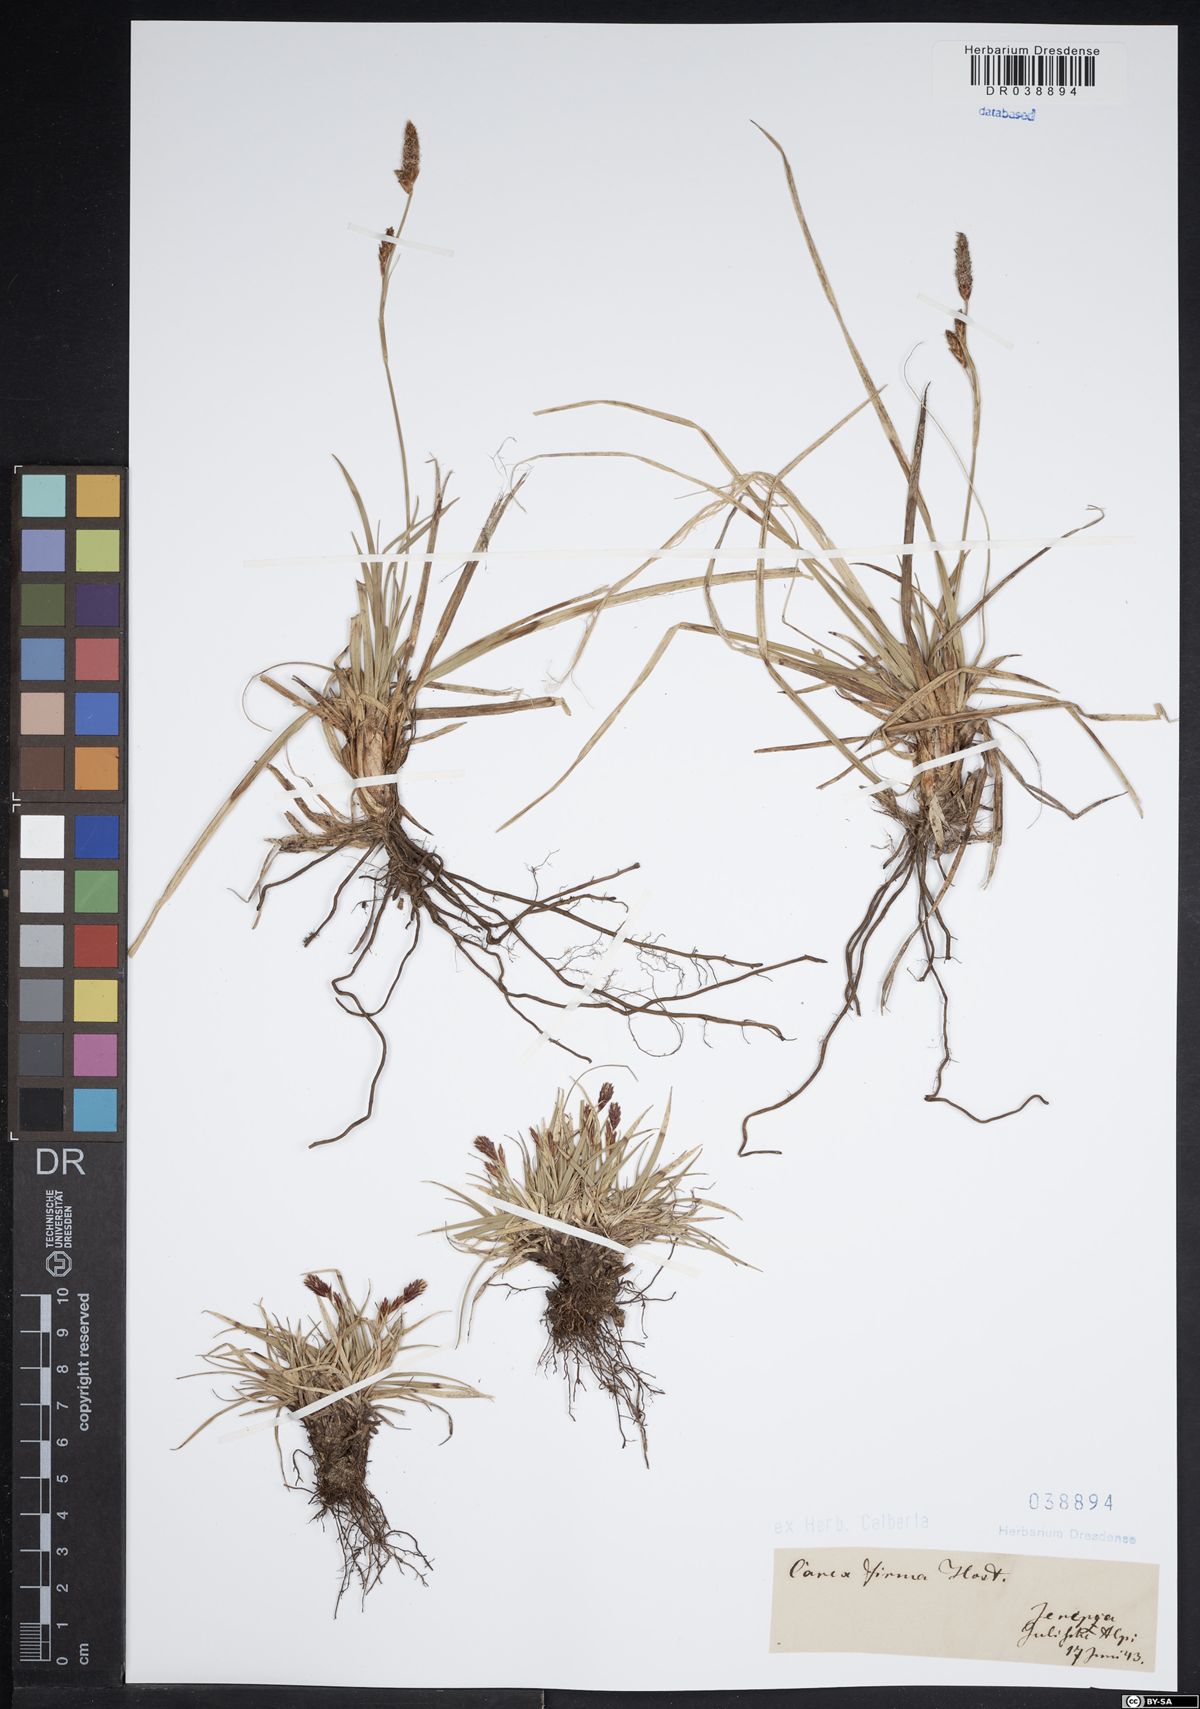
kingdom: Plantae
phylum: Tracheophyta
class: Liliopsida
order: Poales
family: Cyperaceae
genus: Carex
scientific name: Carex firma
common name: Dwarf pillow sedge
